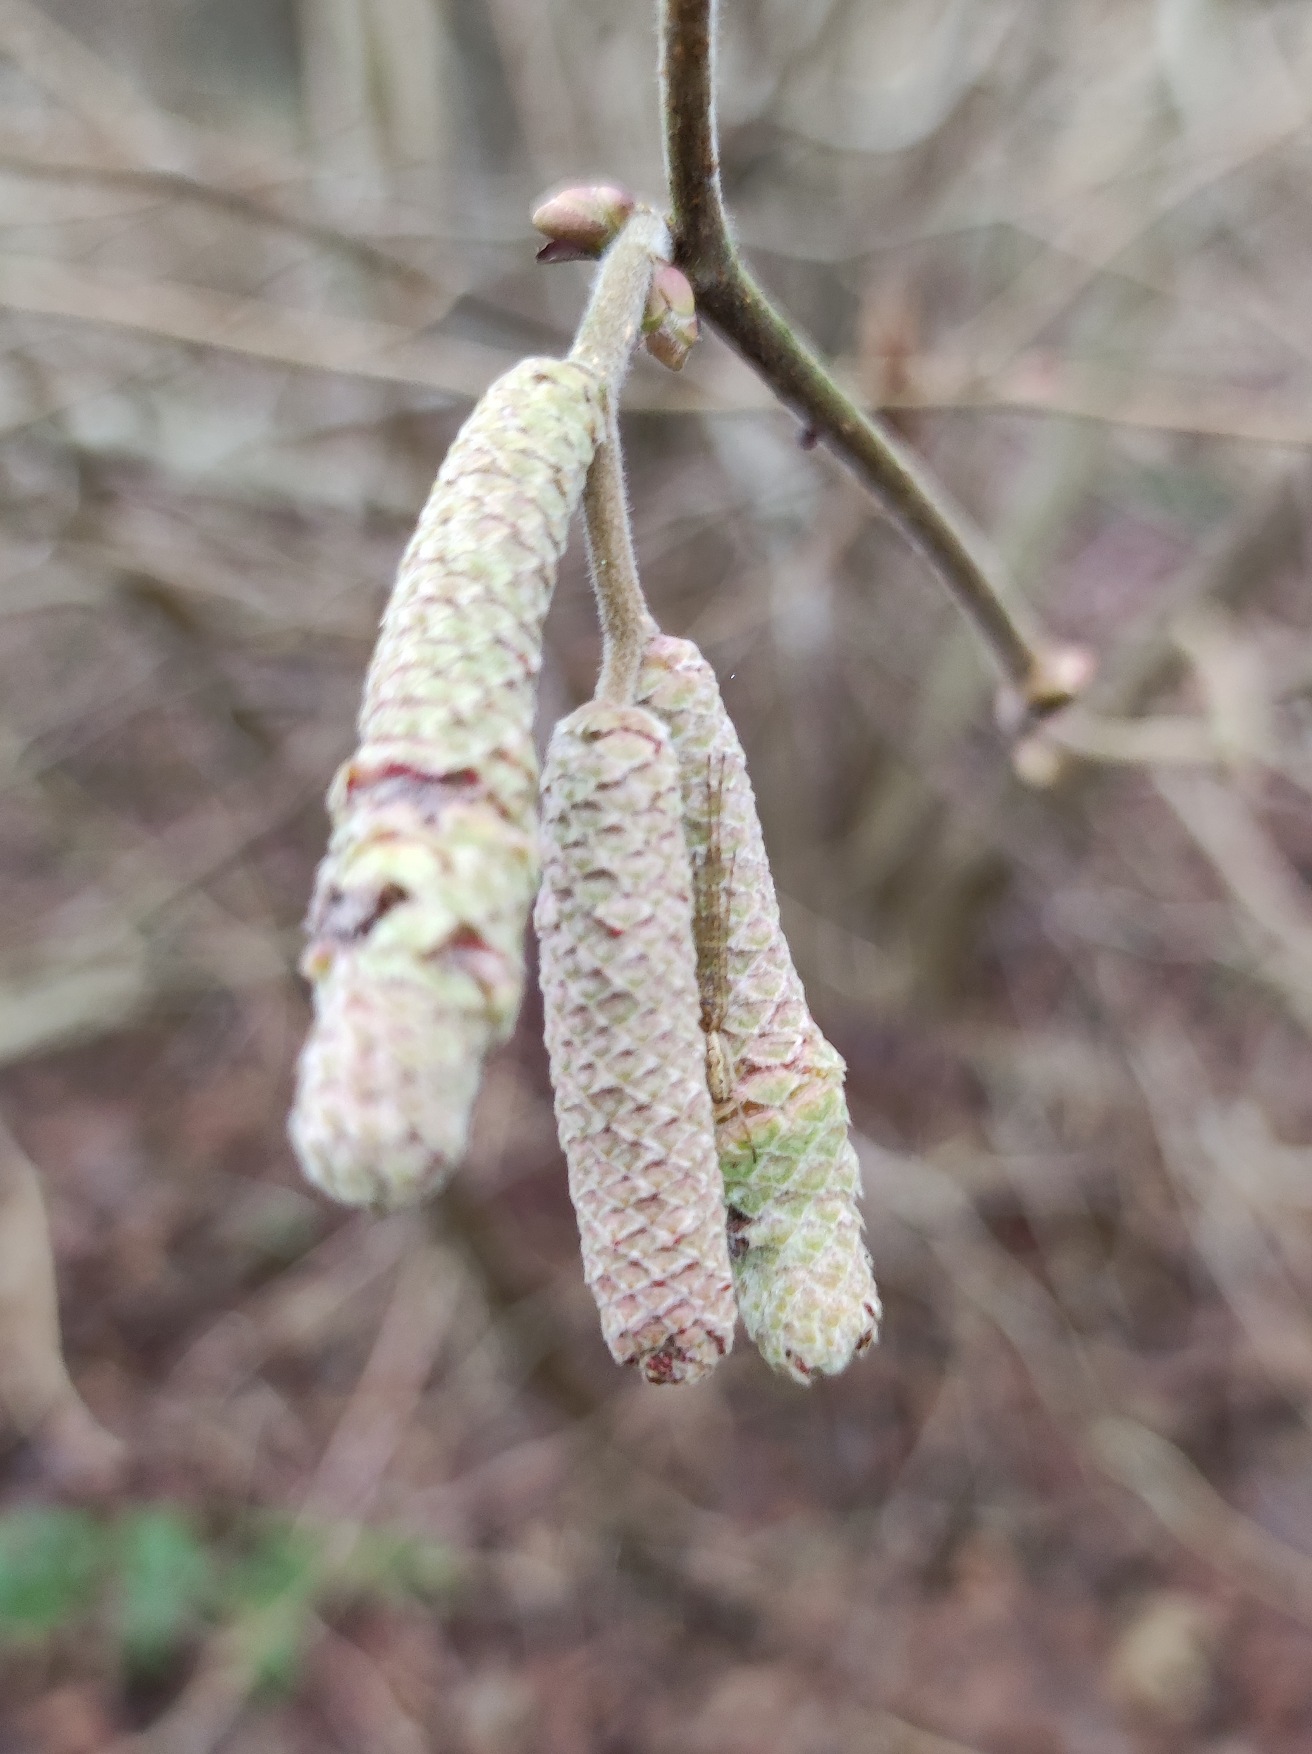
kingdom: Plantae
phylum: Tracheophyta
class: Magnoliopsida
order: Fagales
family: Betulaceae
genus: Corylus
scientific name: Corylus avellana
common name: Hassel
